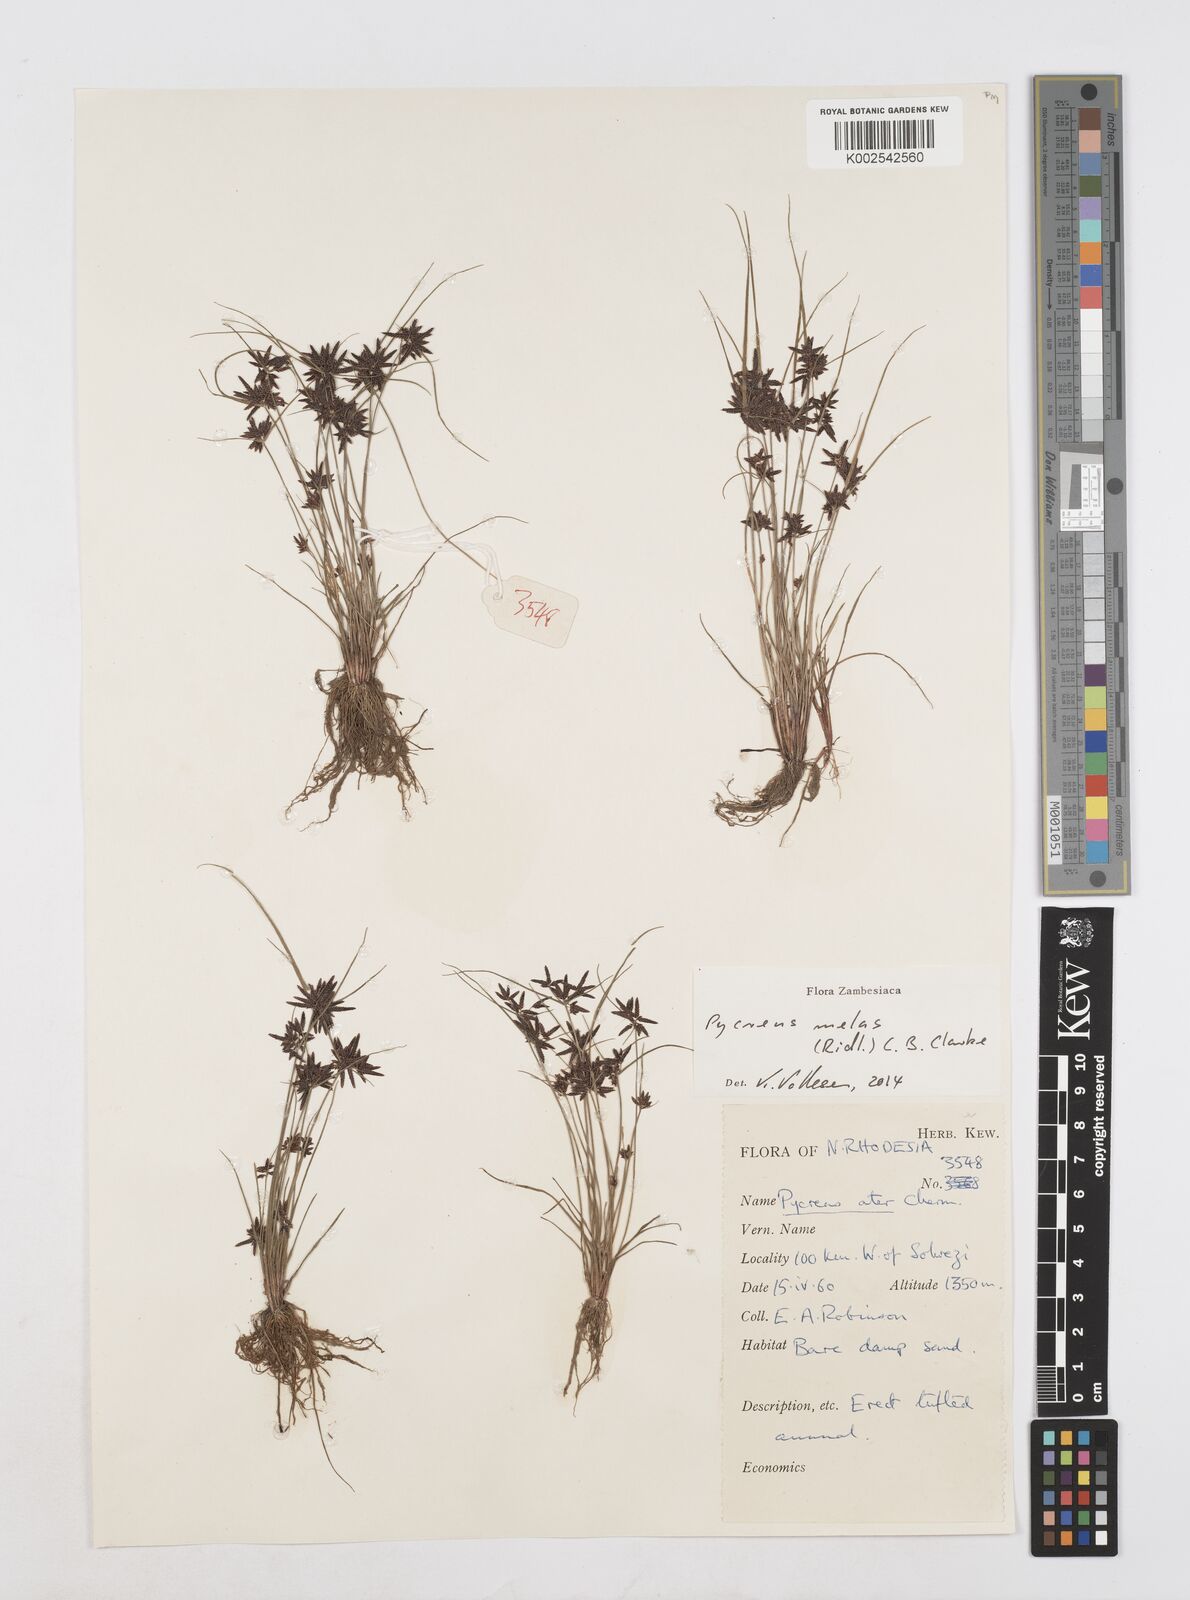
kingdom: Plantae
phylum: Tracheophyta
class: Liliopsida
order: Poales
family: Cyperaceae
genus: Cyperus
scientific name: Cyperus melas
